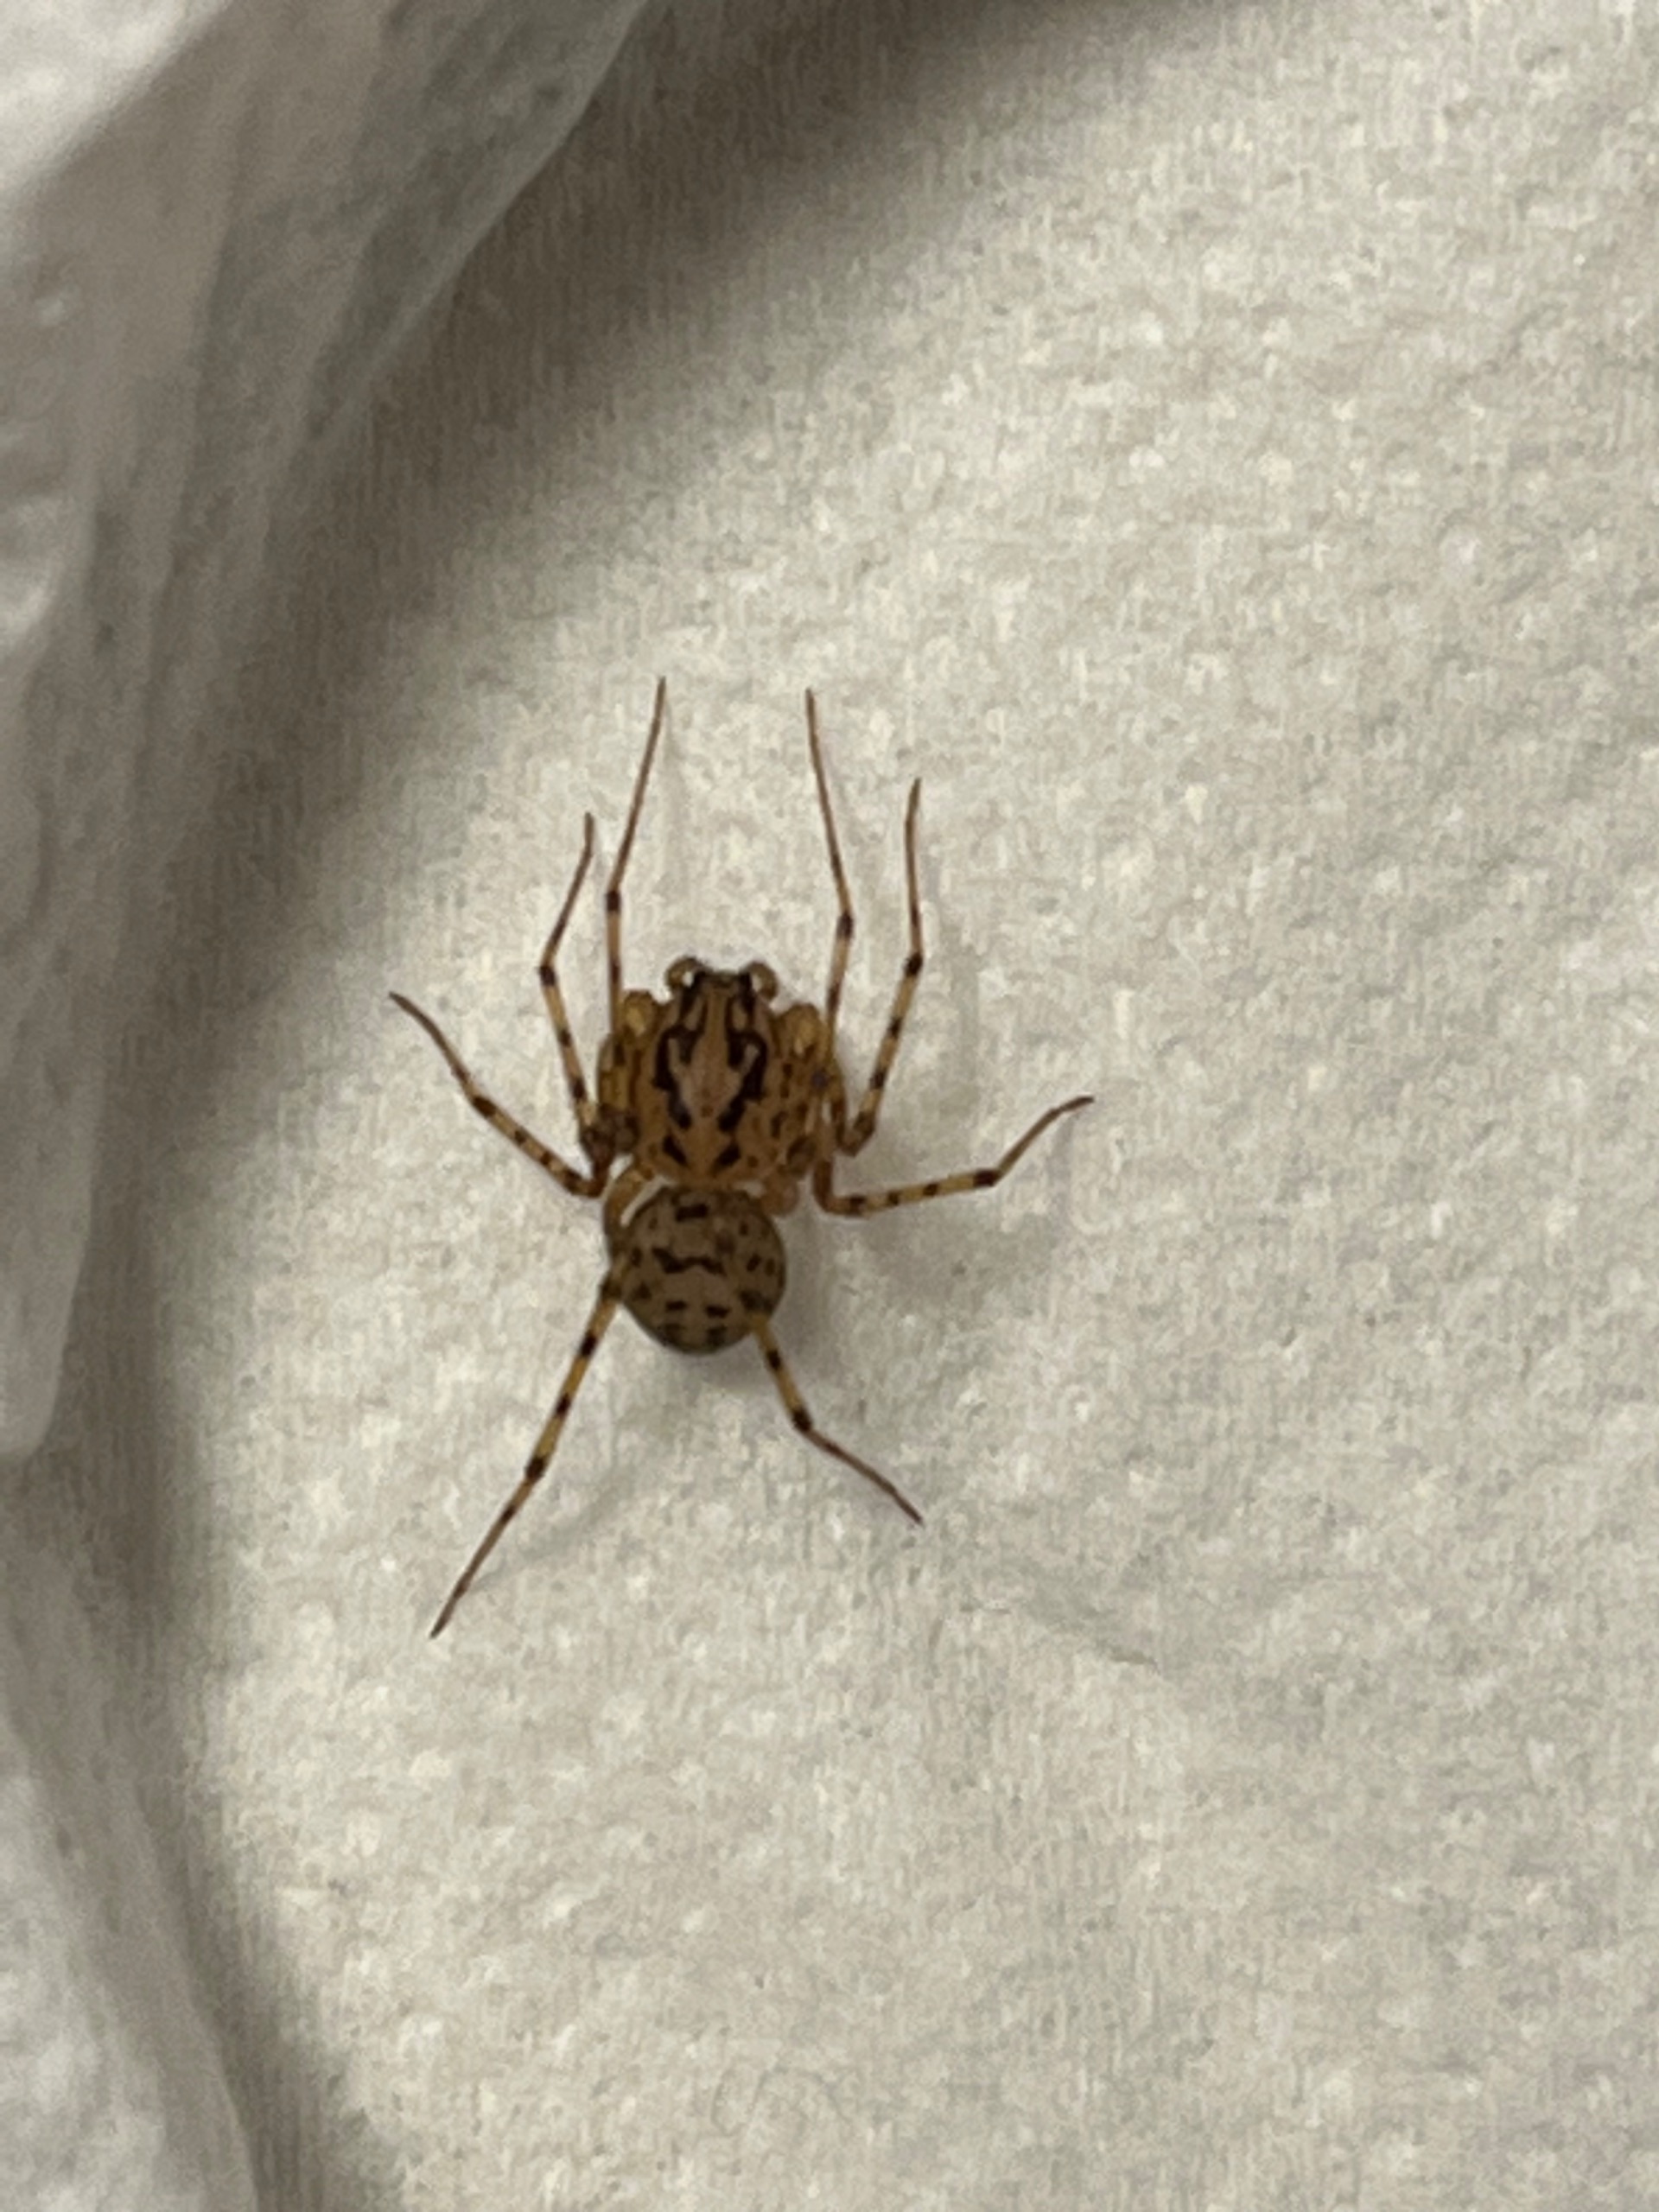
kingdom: Animalia
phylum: Arthropoda
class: Arachnida
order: Araneae
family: Scytodidae
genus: Scytodes
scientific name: Scytodes thoracica
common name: Spytteedderkop
